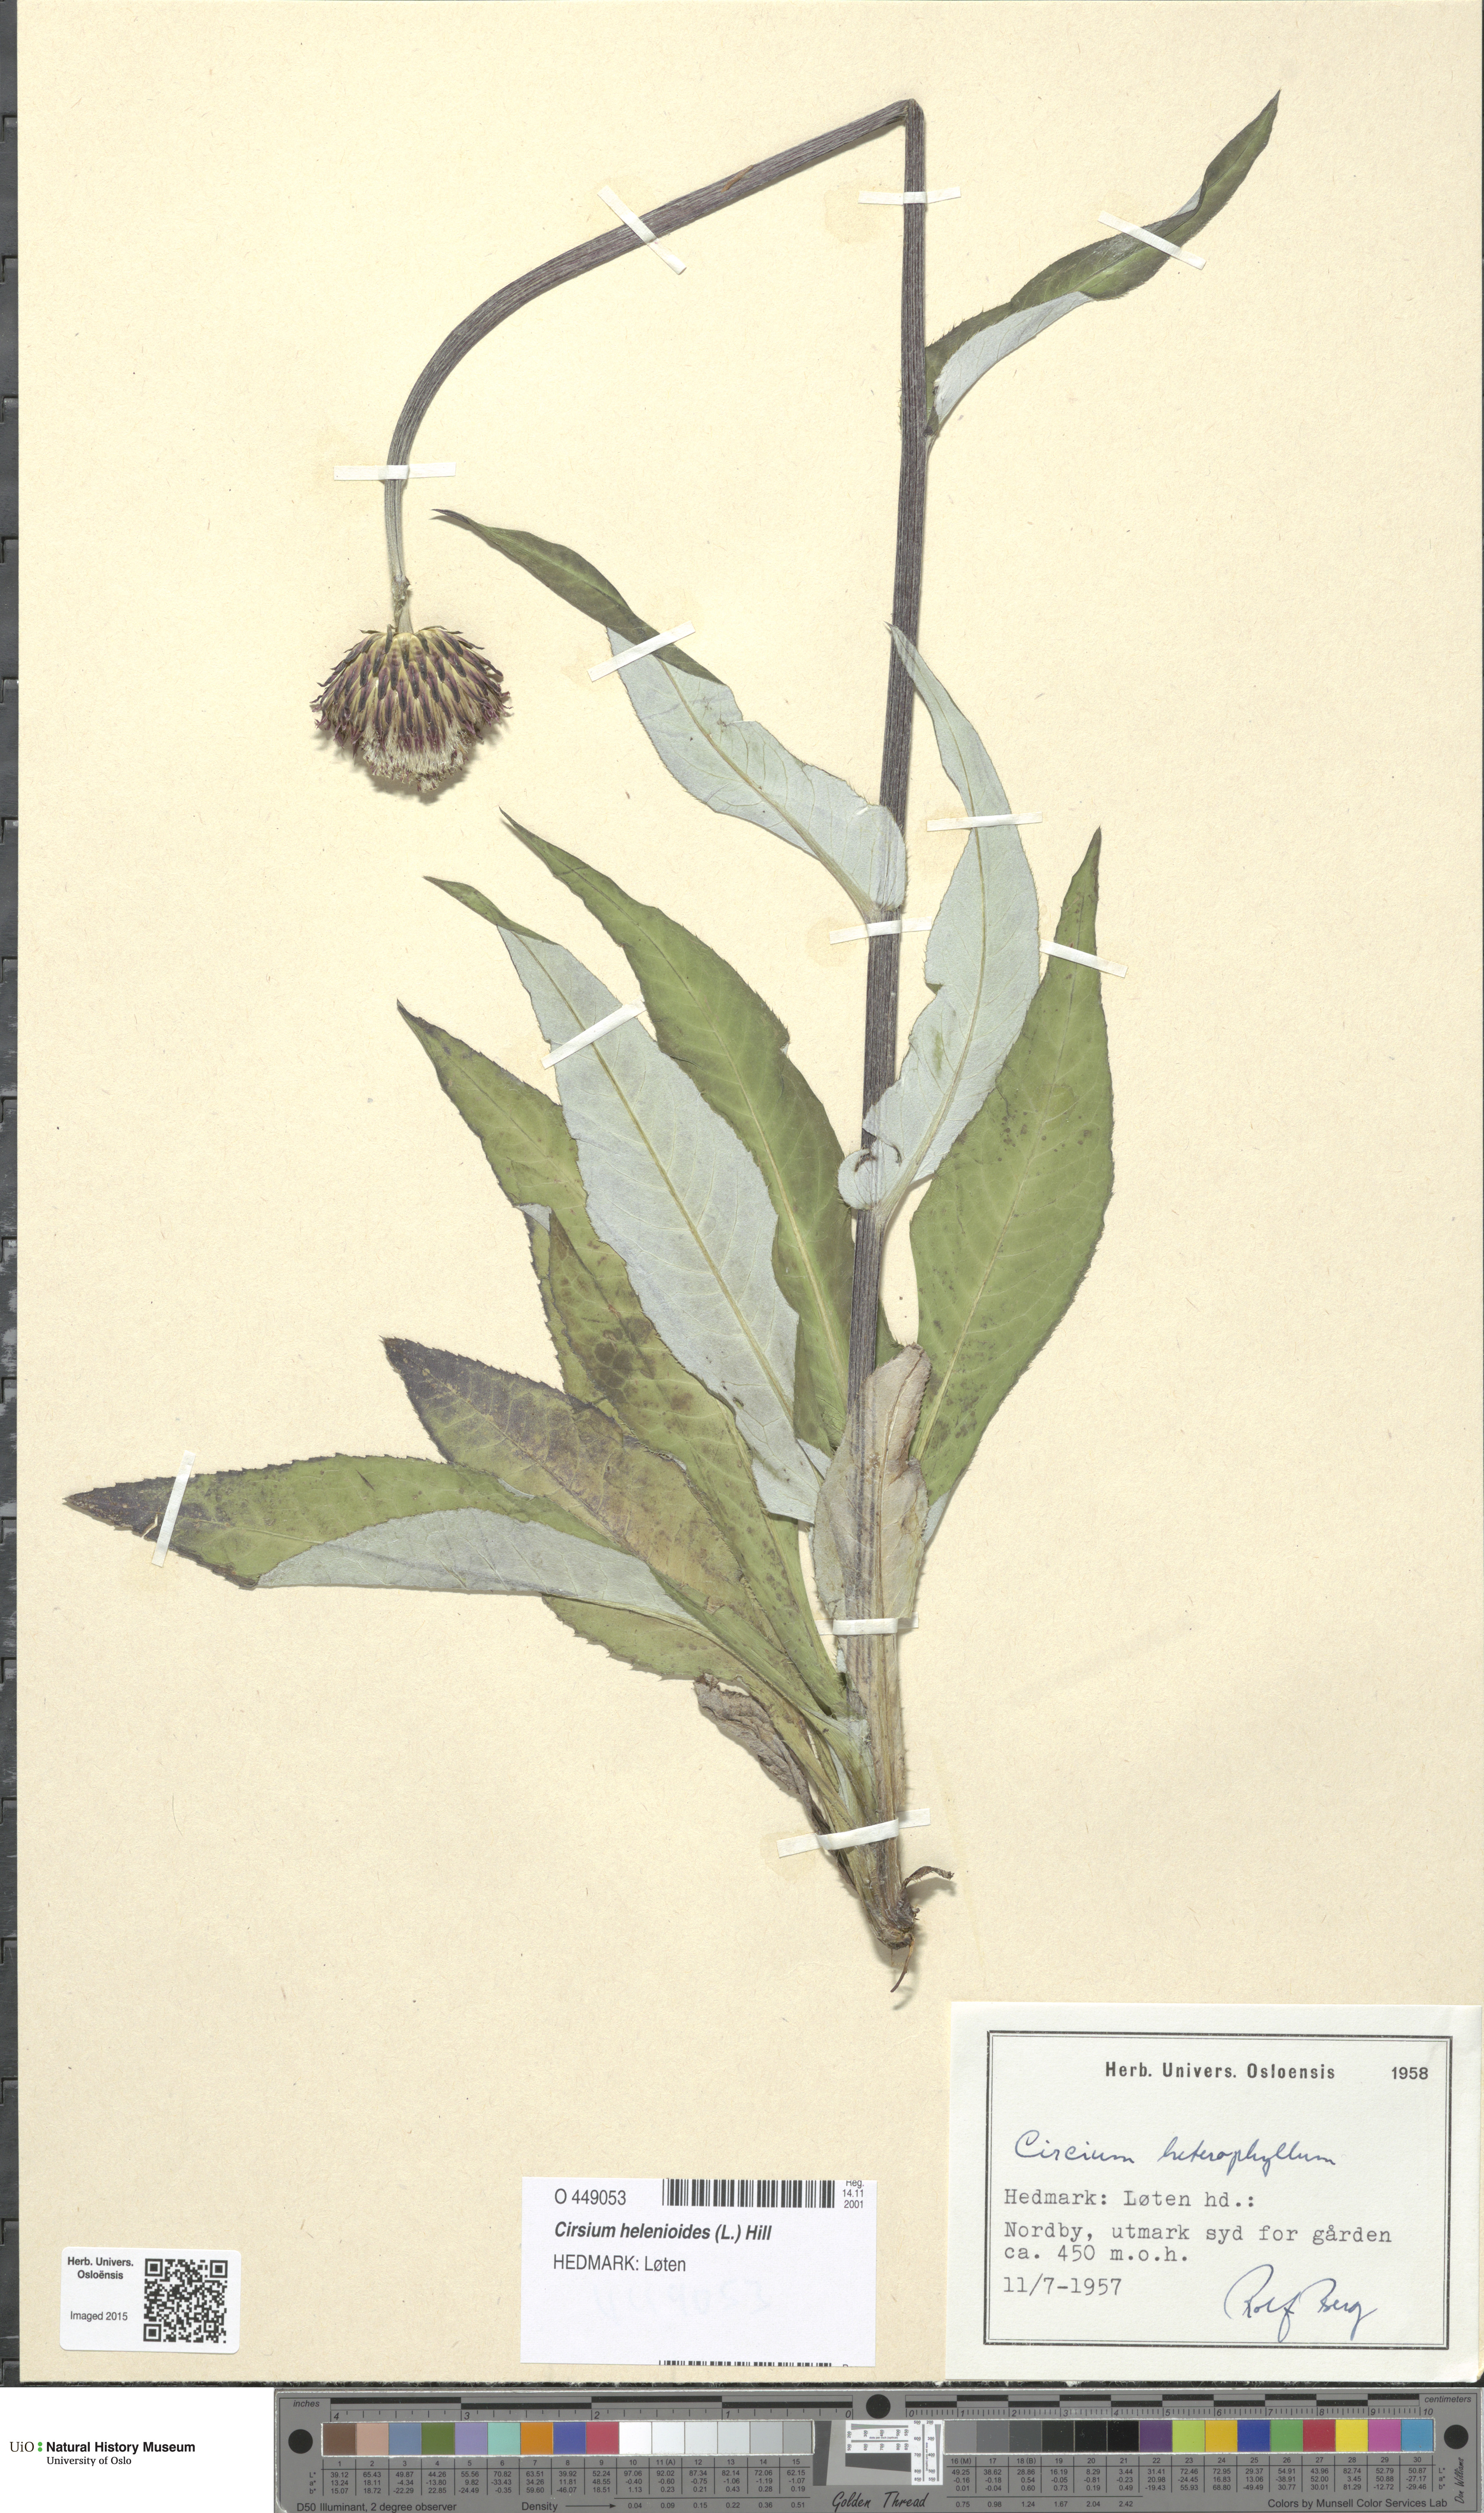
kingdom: Plantae
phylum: Tracheophyta
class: Magnoliopsida
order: Asterales
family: Asteraceae
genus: Cirsium
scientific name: Cirsium heterophyllum
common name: Melancholy thistle
